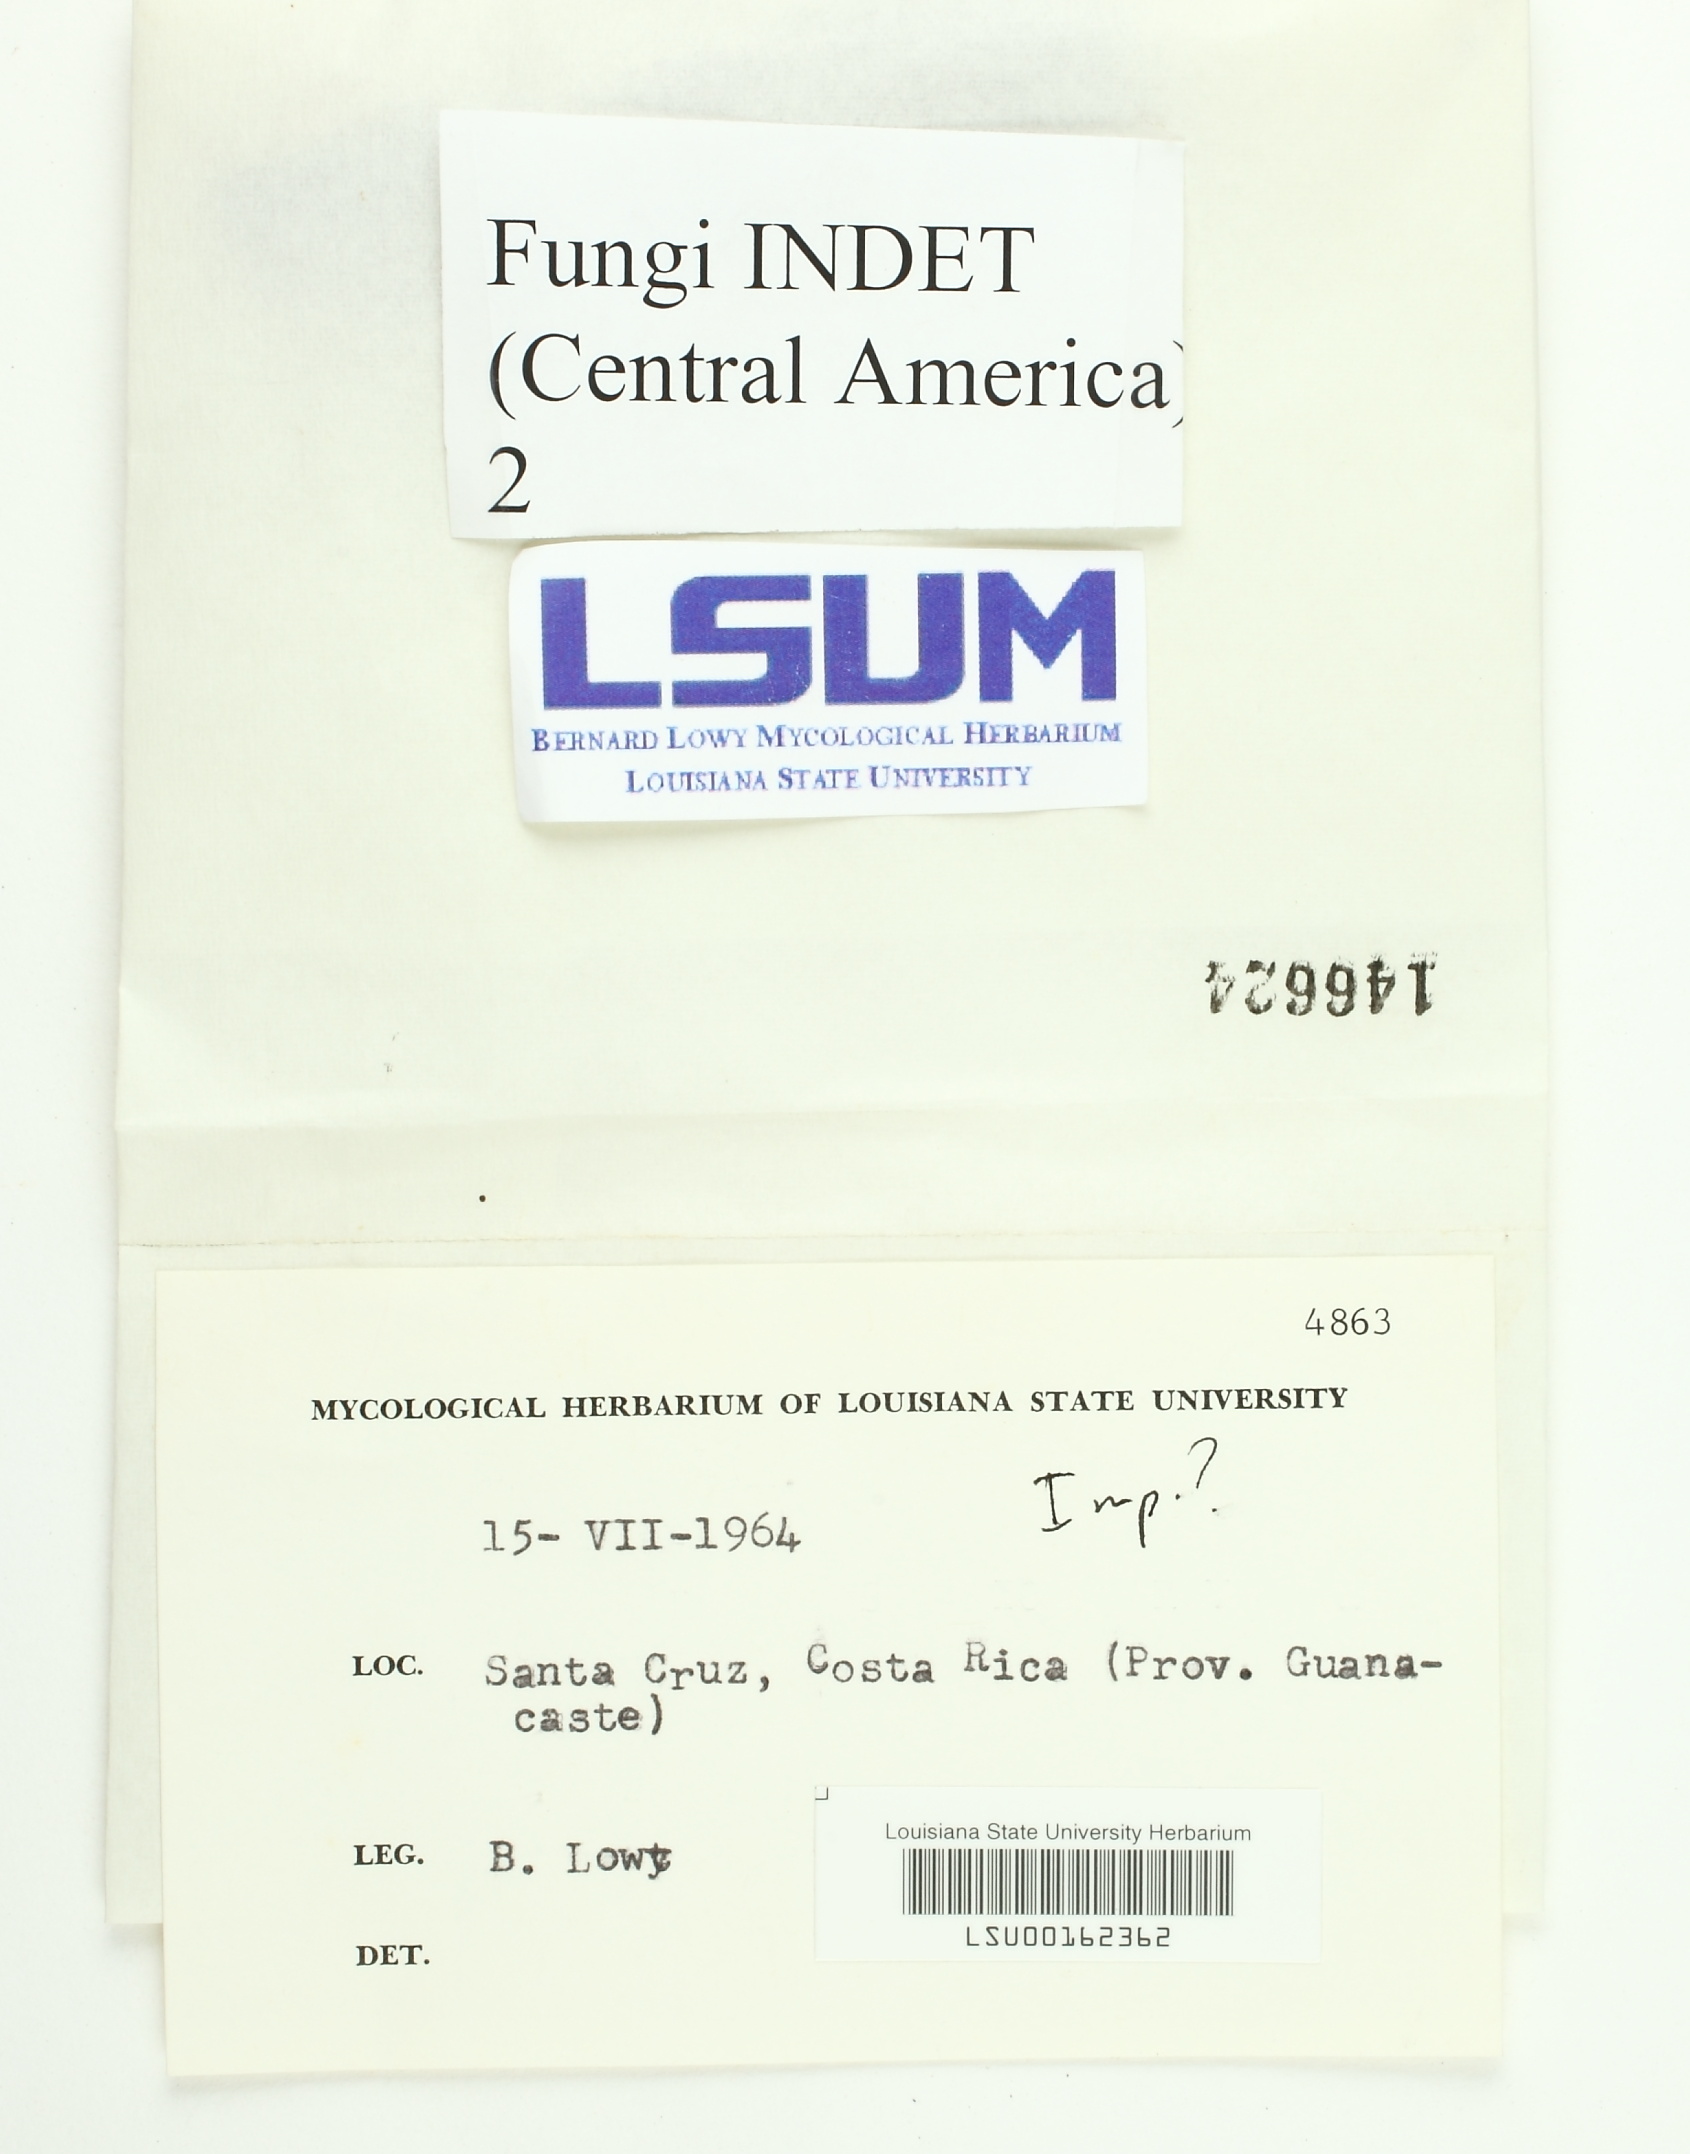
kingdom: Fungi
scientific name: Fungi
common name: Fungi
